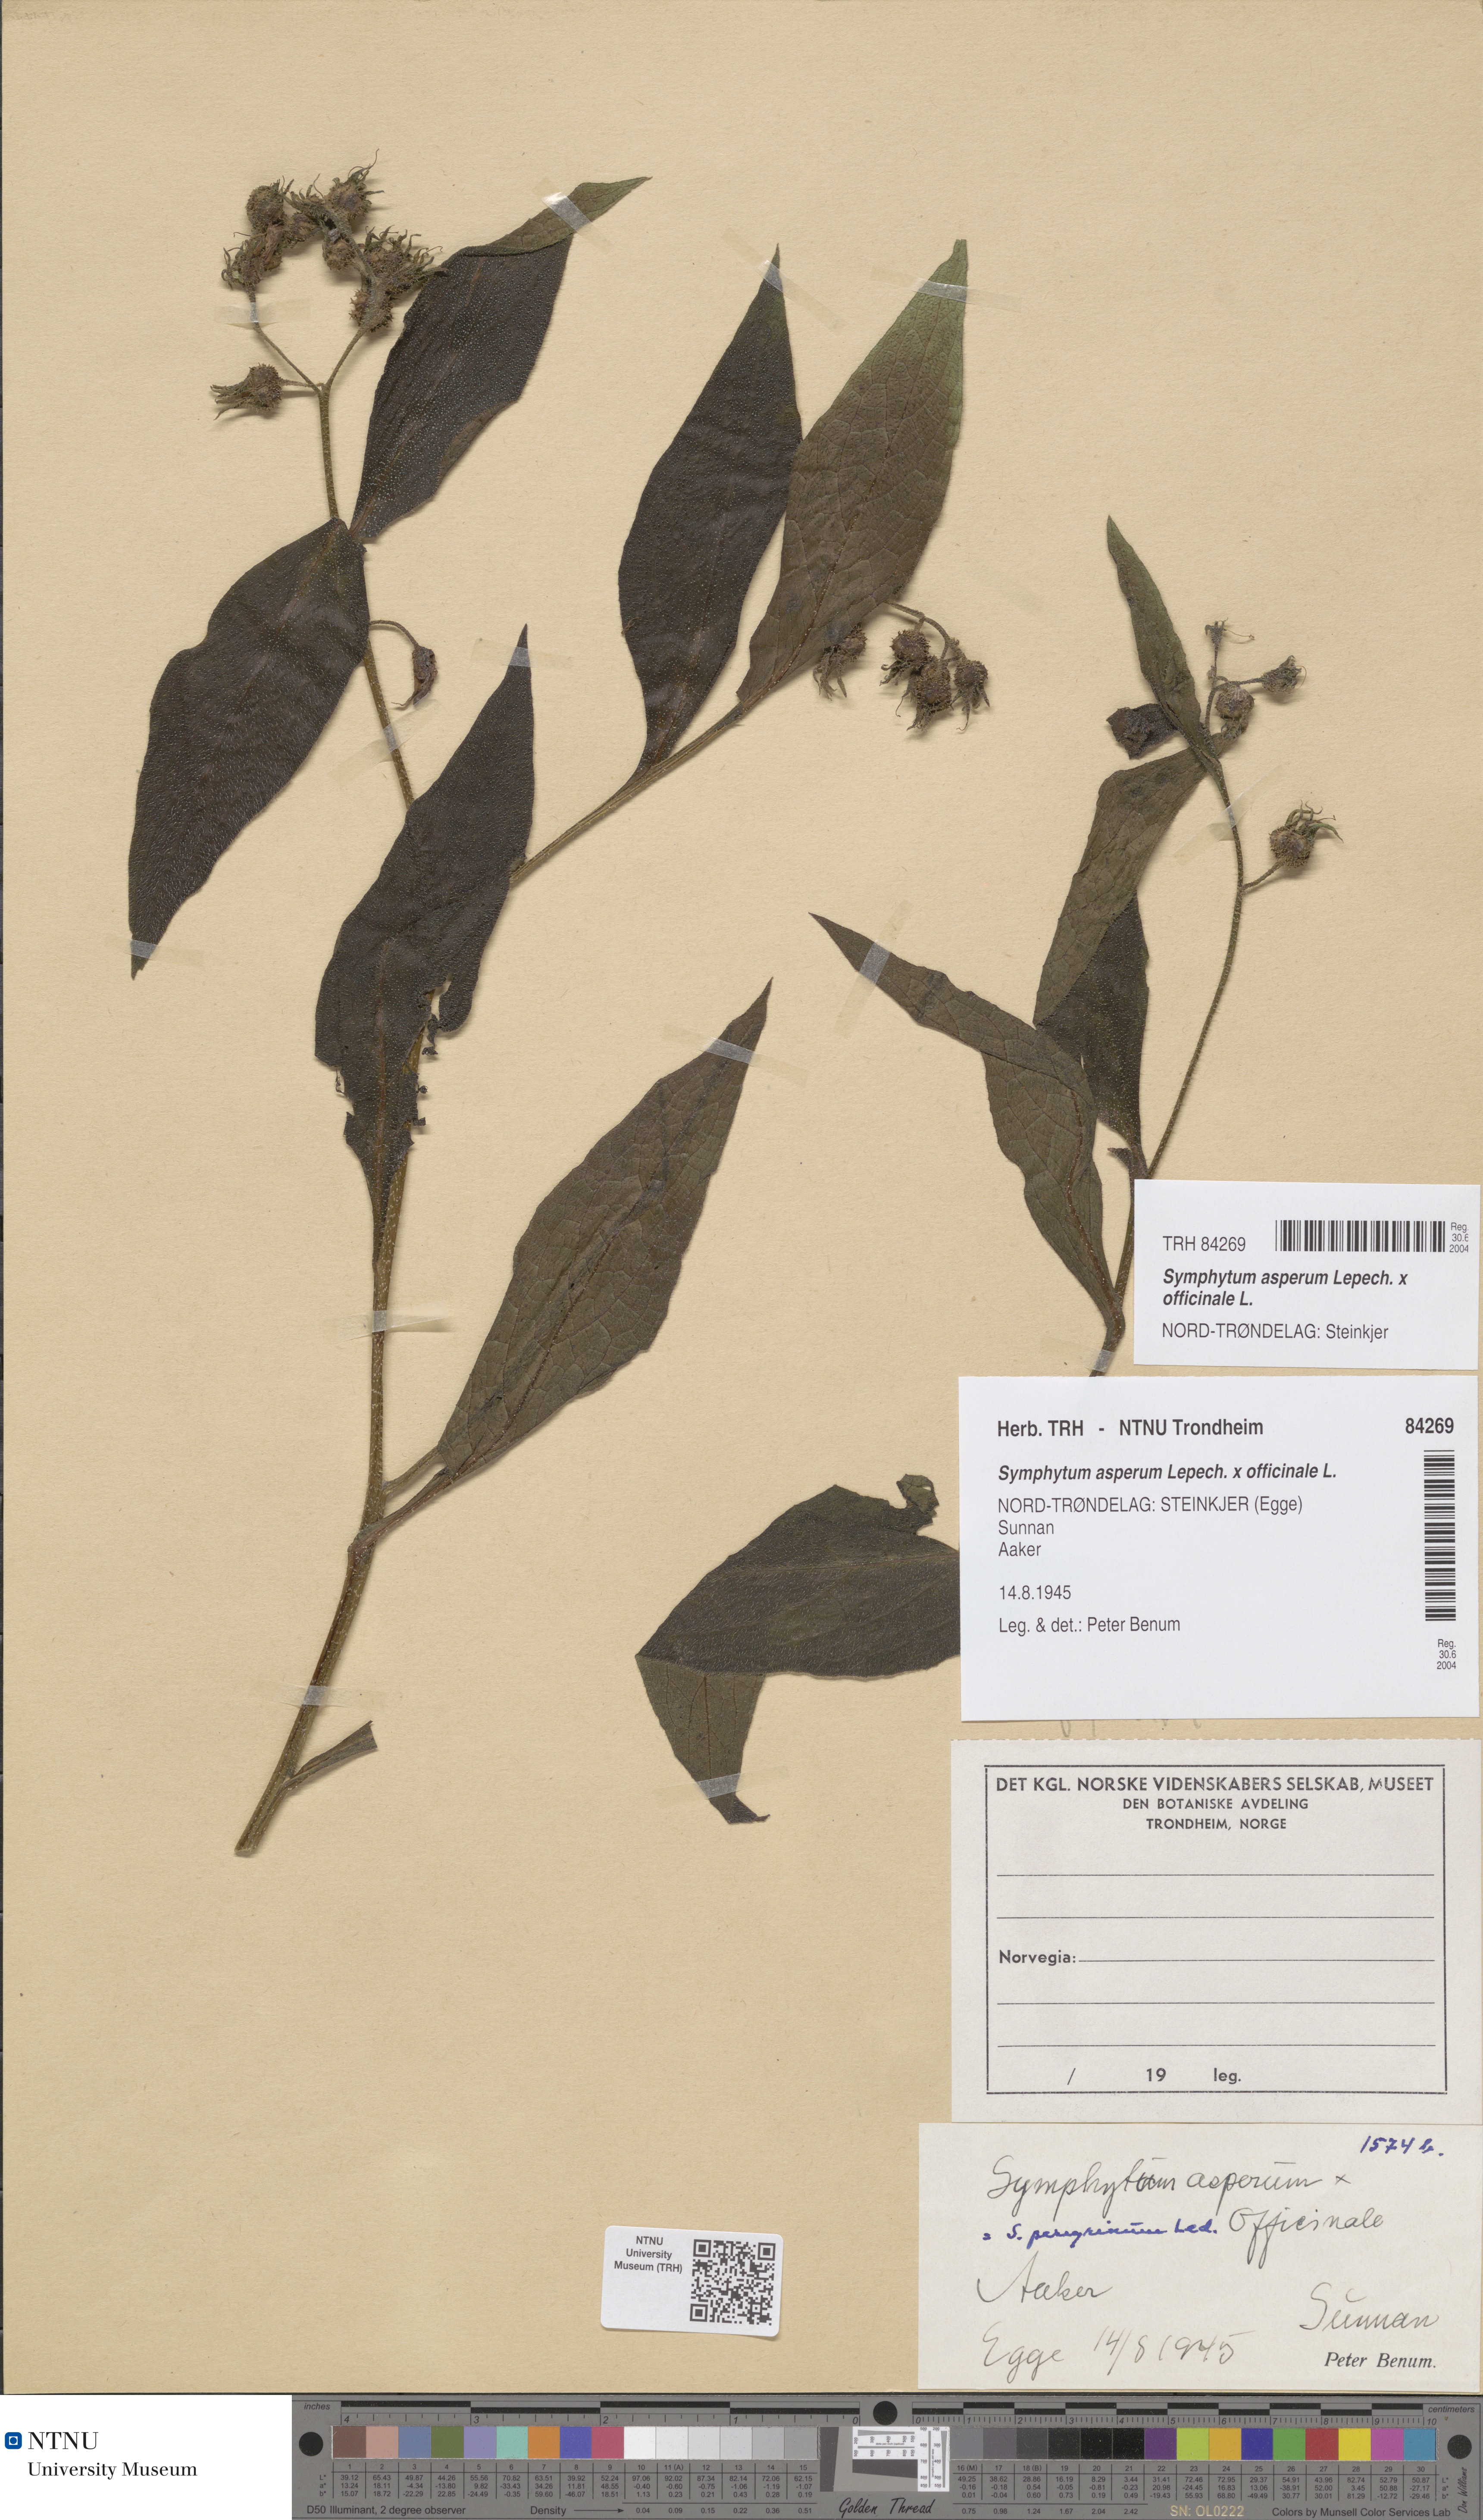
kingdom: Plantae
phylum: Tracheophyta
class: Magnoliopsida
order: Boraginales
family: Boraginaceae
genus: Symphytum
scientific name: Symphytum uplandicum
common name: Russian comfrey
